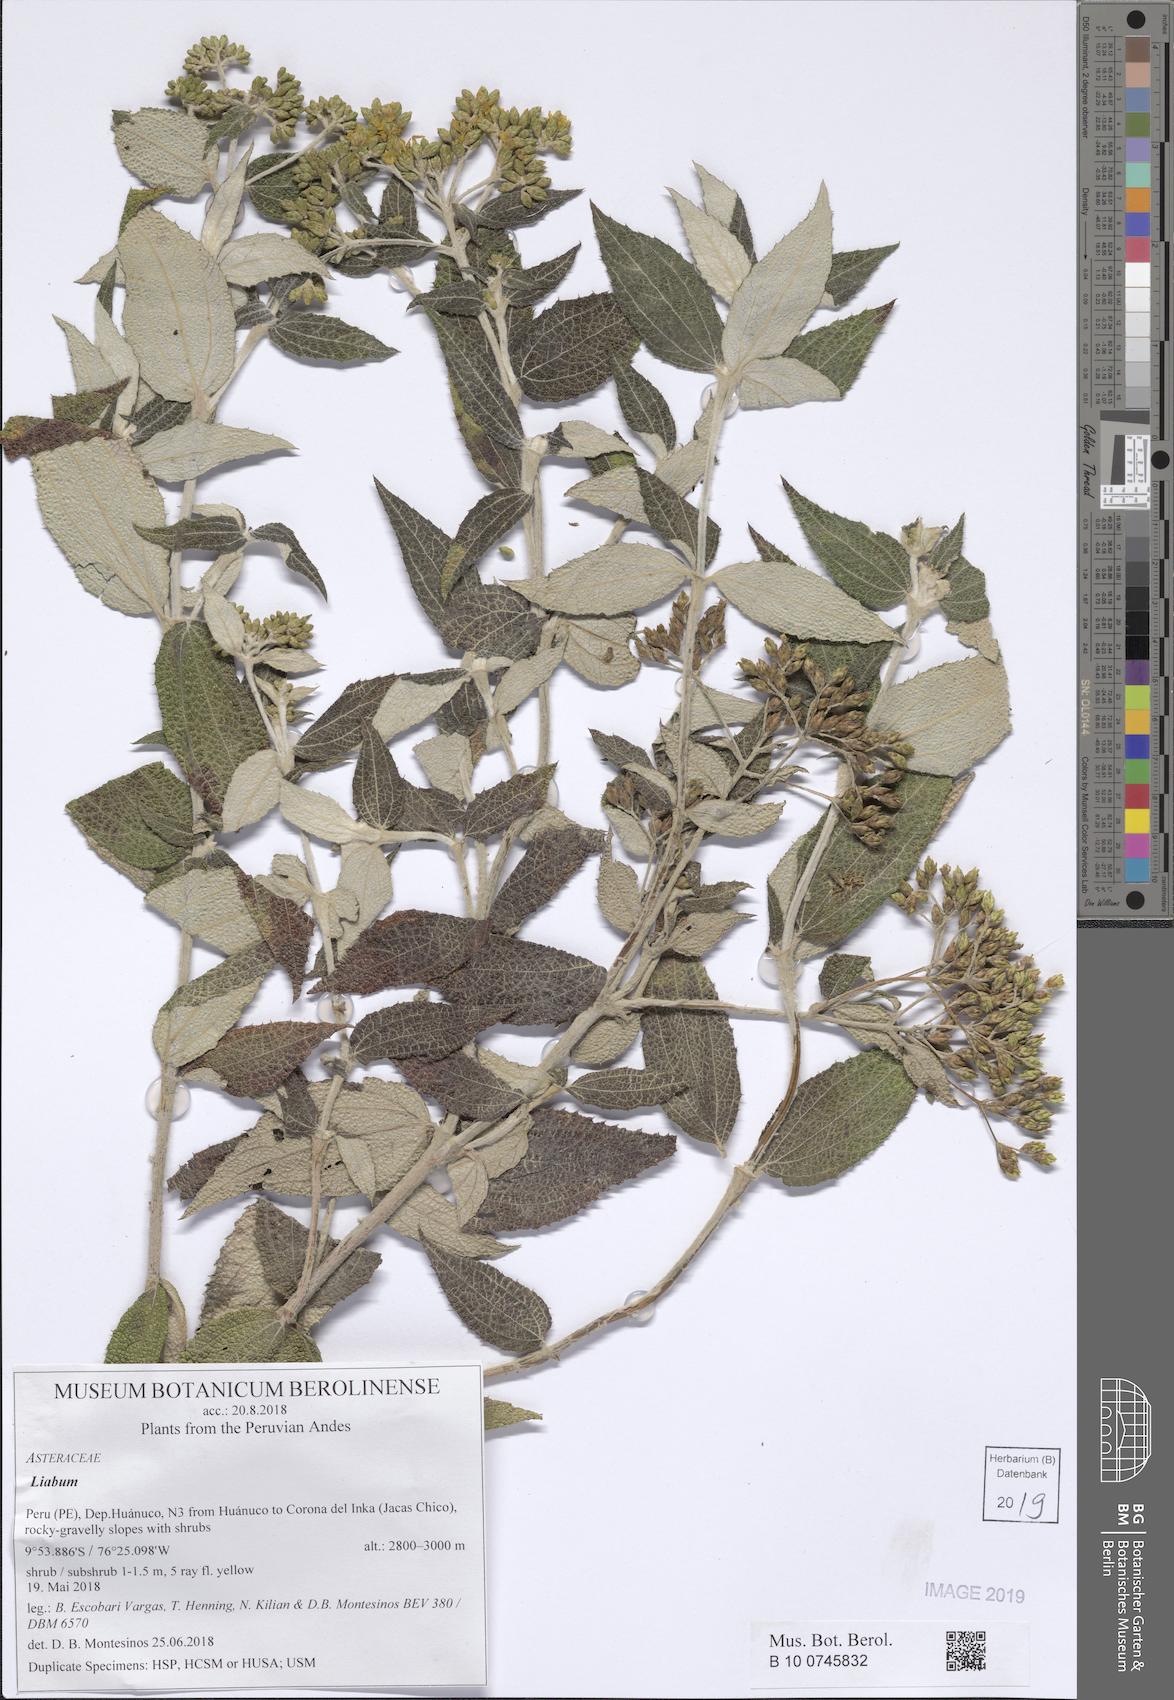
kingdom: Plantae
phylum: Tracheophyta
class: Magnoliopsida
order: Asterales
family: Asteraceae
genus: Liabum
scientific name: Liabum
